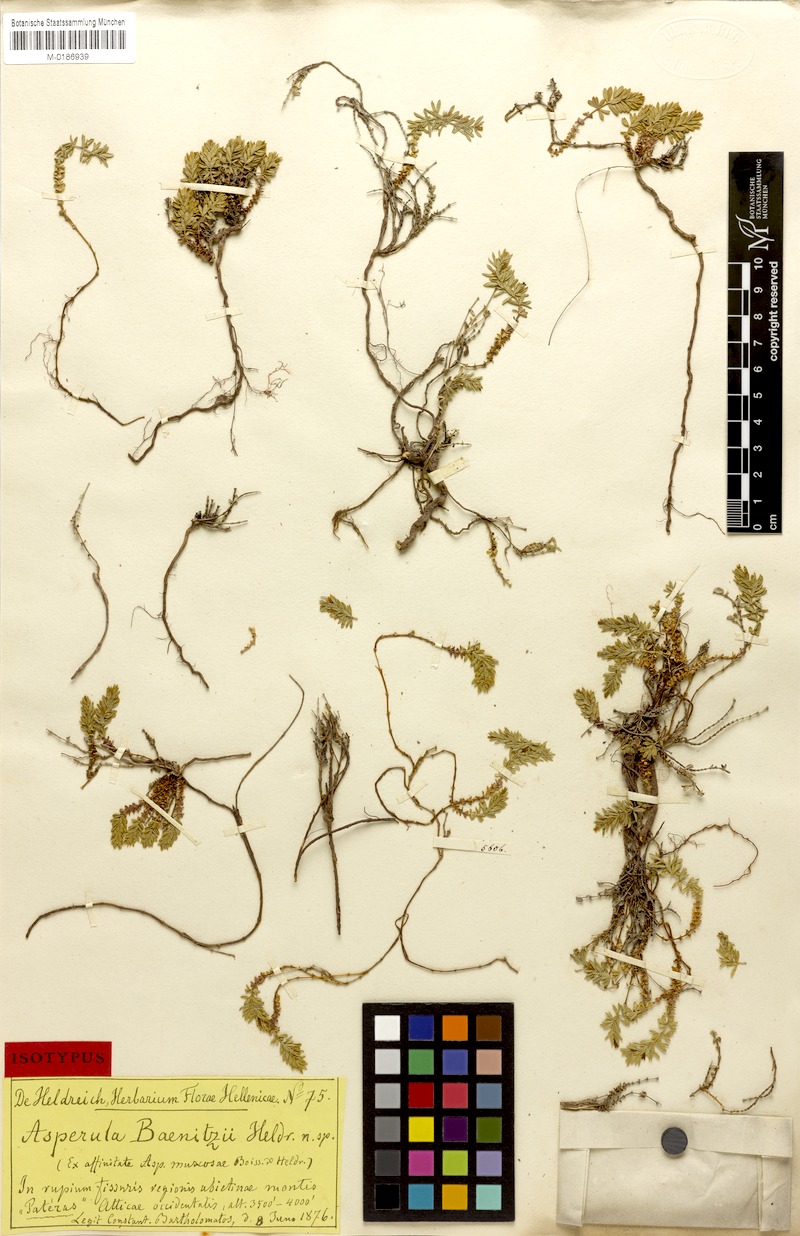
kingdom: Plantae
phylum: Tracheophyta
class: Magnoliopsida
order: Gentianales
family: Rubiaceae
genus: Thliphthisa
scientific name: Thliphthisa baenitzii
